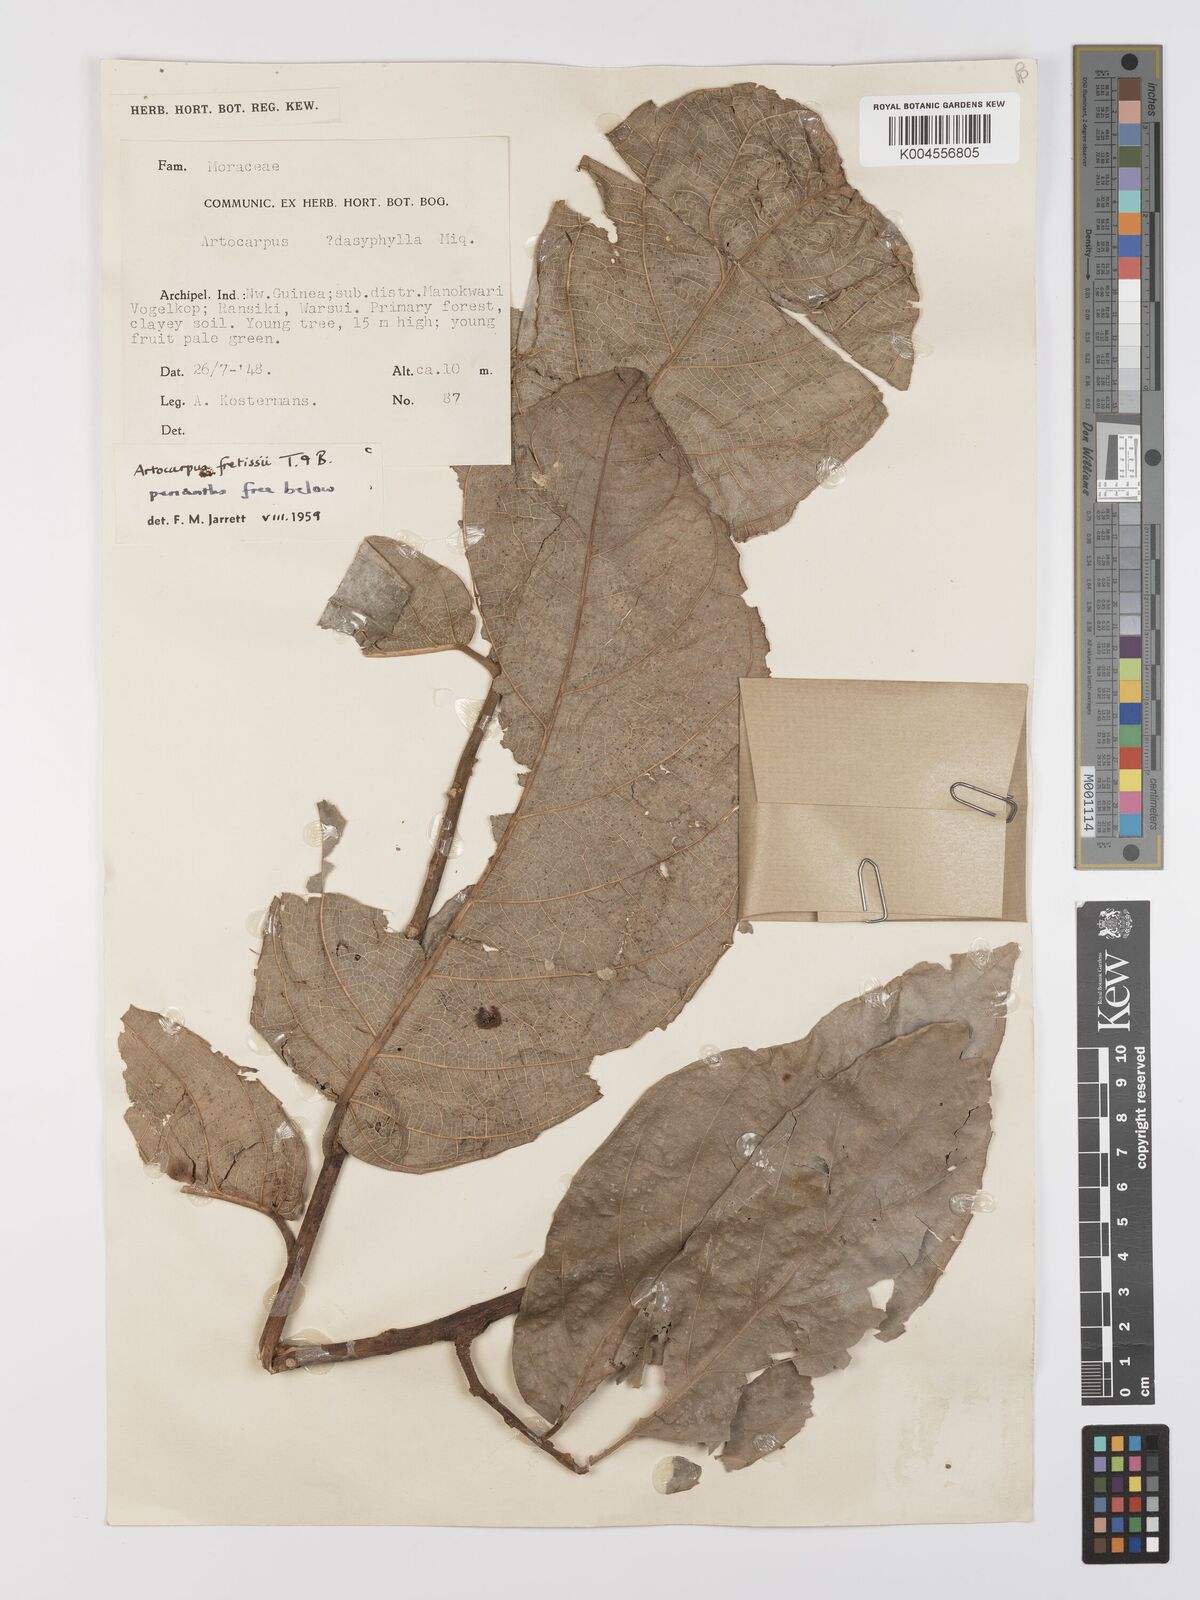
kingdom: Plantae
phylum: Tracheophyta
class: Magnoliopsida
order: Rosales
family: Moraceae
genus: Artocarpus
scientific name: Artocarpus lacucha
